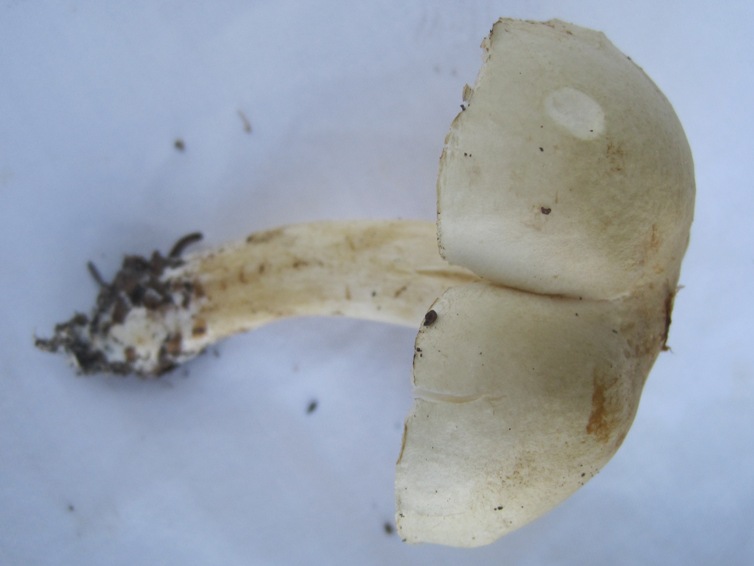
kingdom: Fungi
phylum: Basidiomycota
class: Agaricomycetes
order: Agaricales
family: Tricholomataceae
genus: Tricholoma
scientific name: Tricholoma lascivum
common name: stinkende ridderhat
